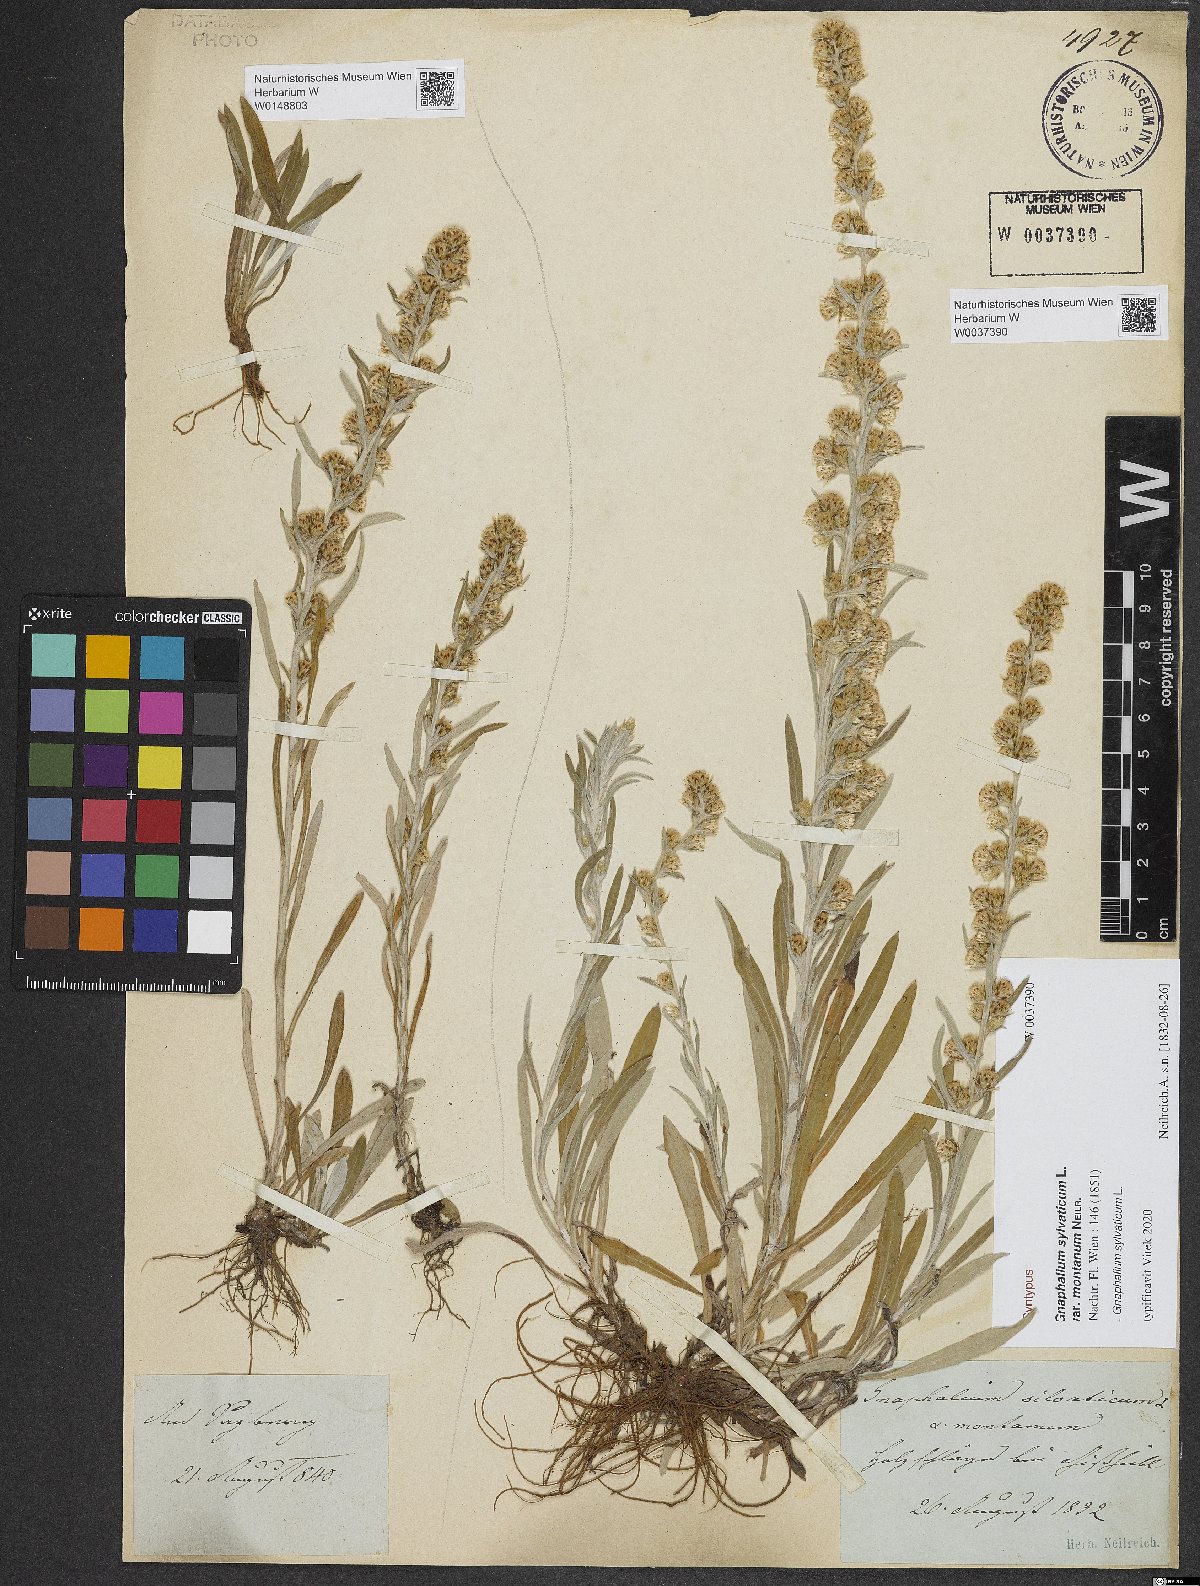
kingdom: Plantae
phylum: Tracheophyta
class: Magnoliopsida
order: Asterales
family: Asteraceae
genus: Omalotheca
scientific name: Omalotheca sylvatica
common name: Heath cudweed
